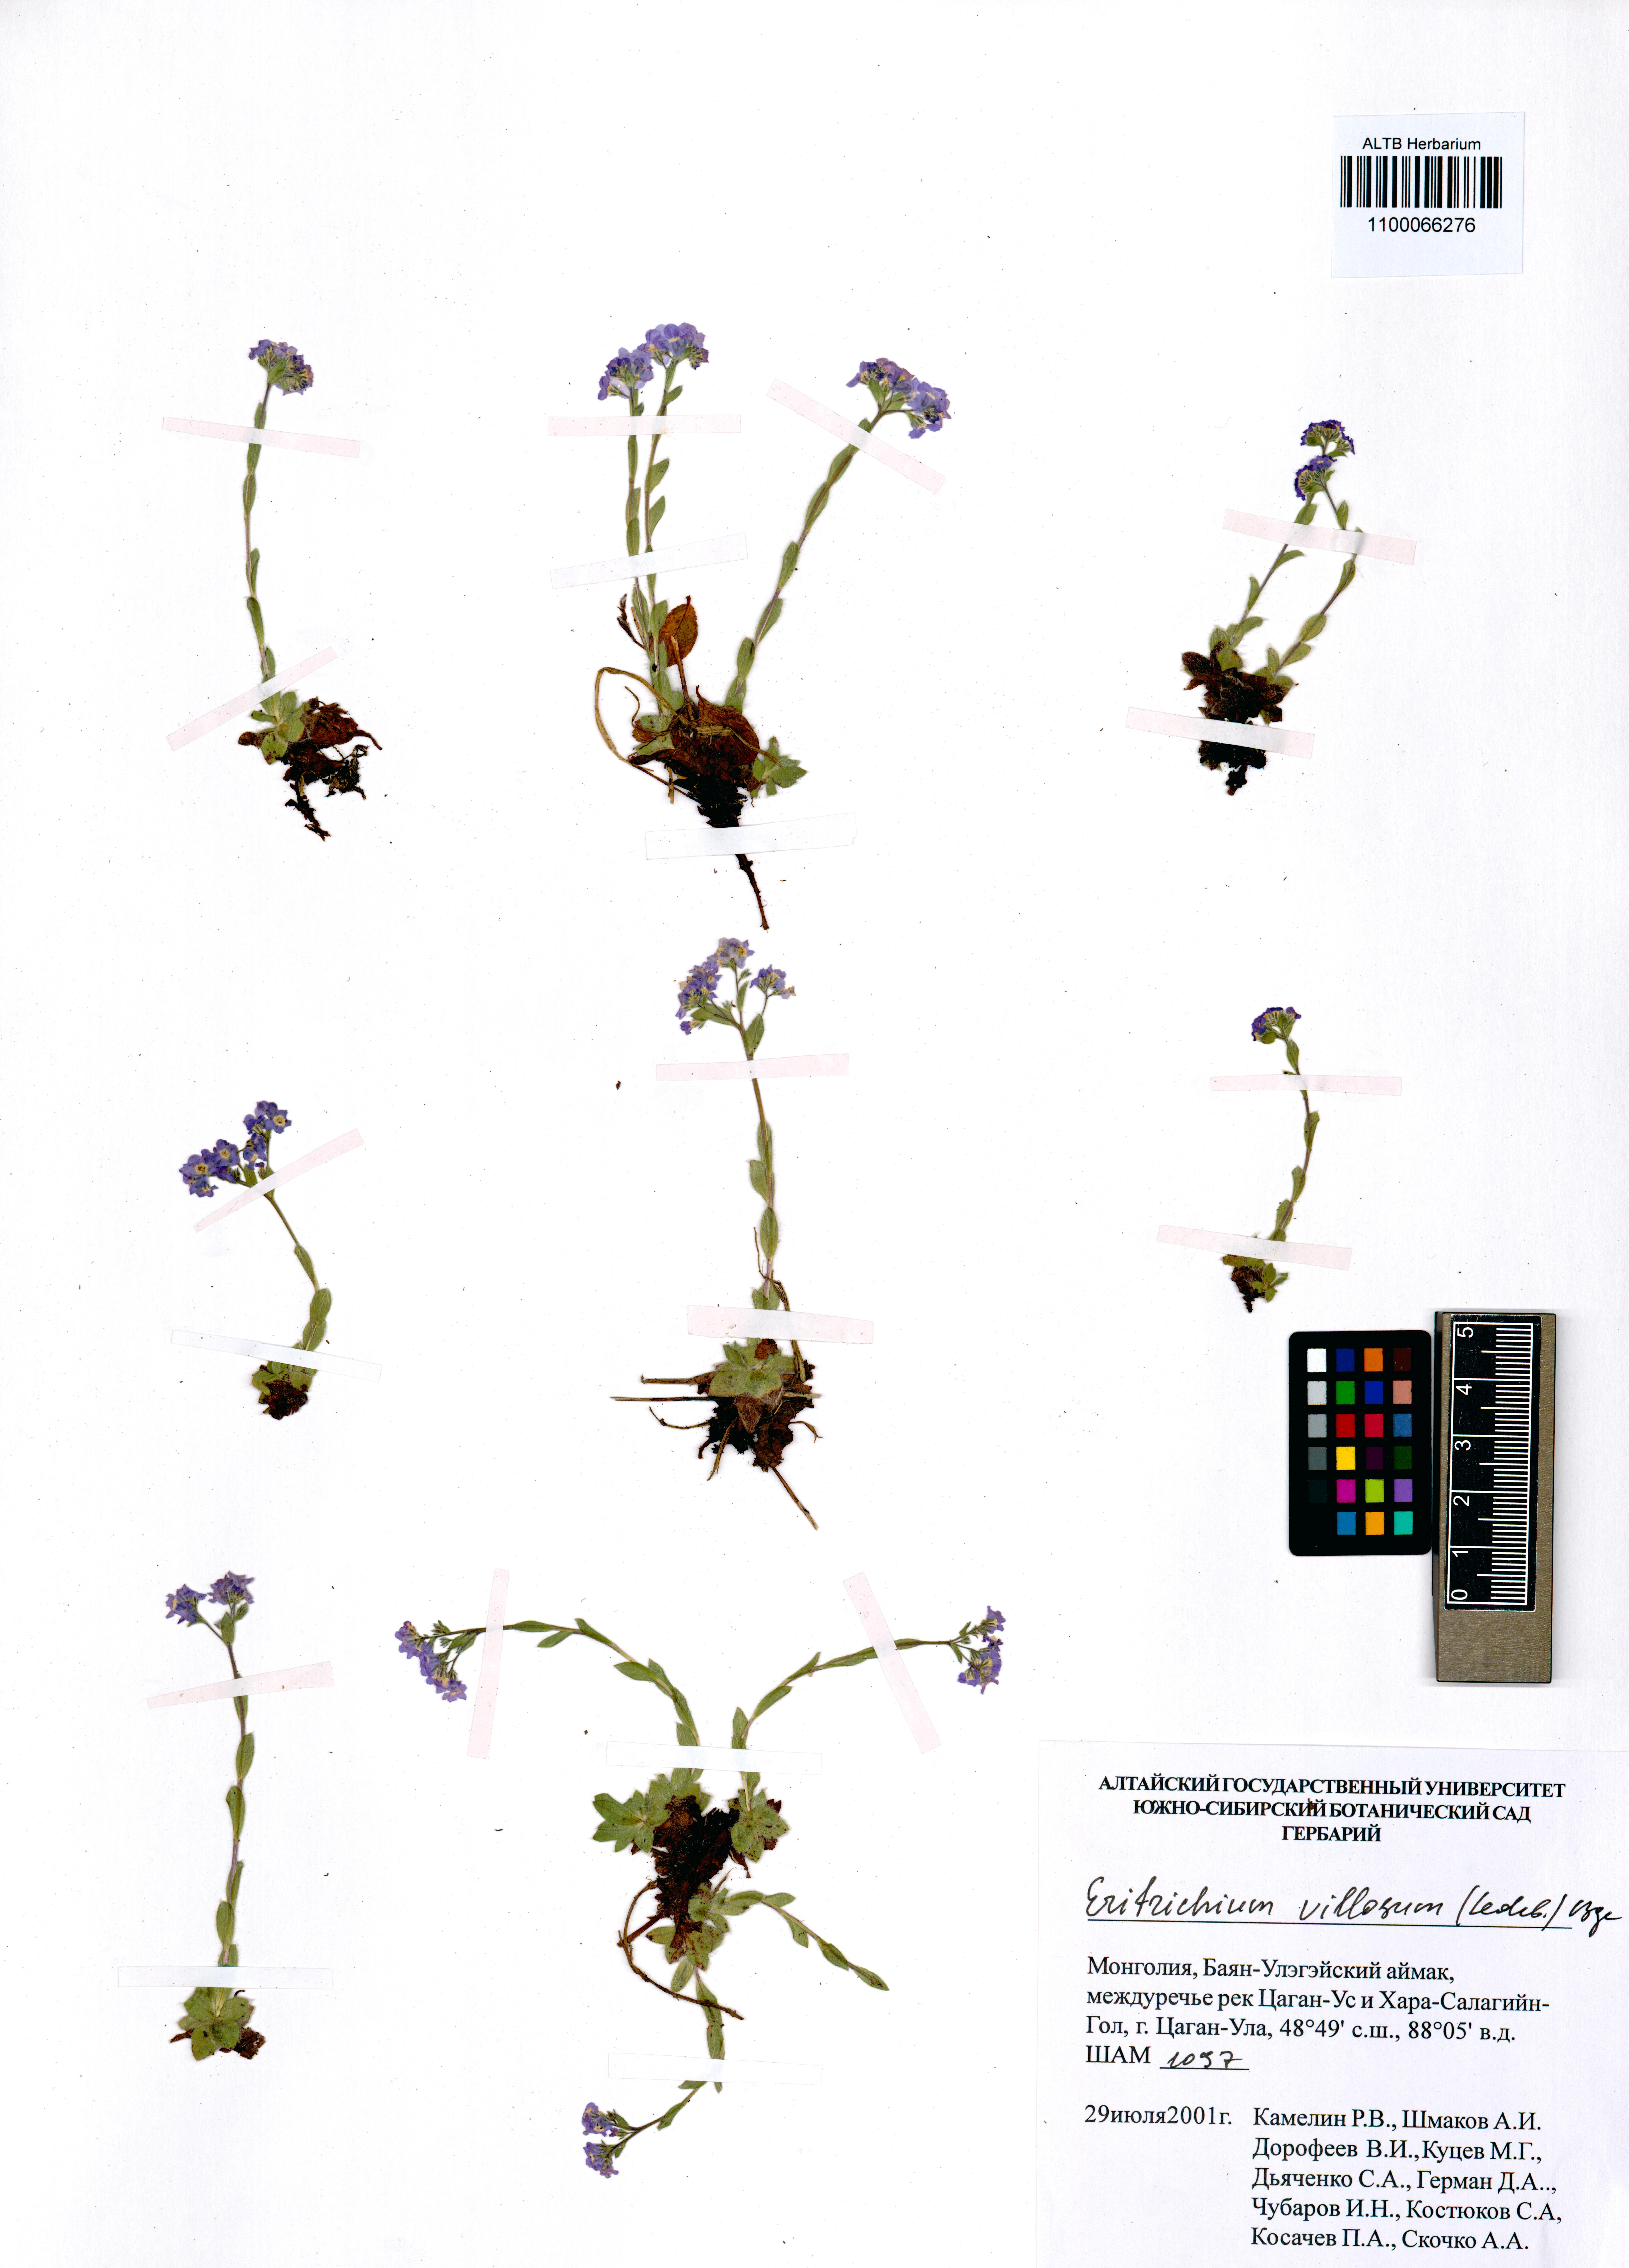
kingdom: Plantae
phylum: Tracheophyta
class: Magnoliopsida
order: Boraginales
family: Boraginaceae
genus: Eritrichium
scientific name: Eritrichium villosum
